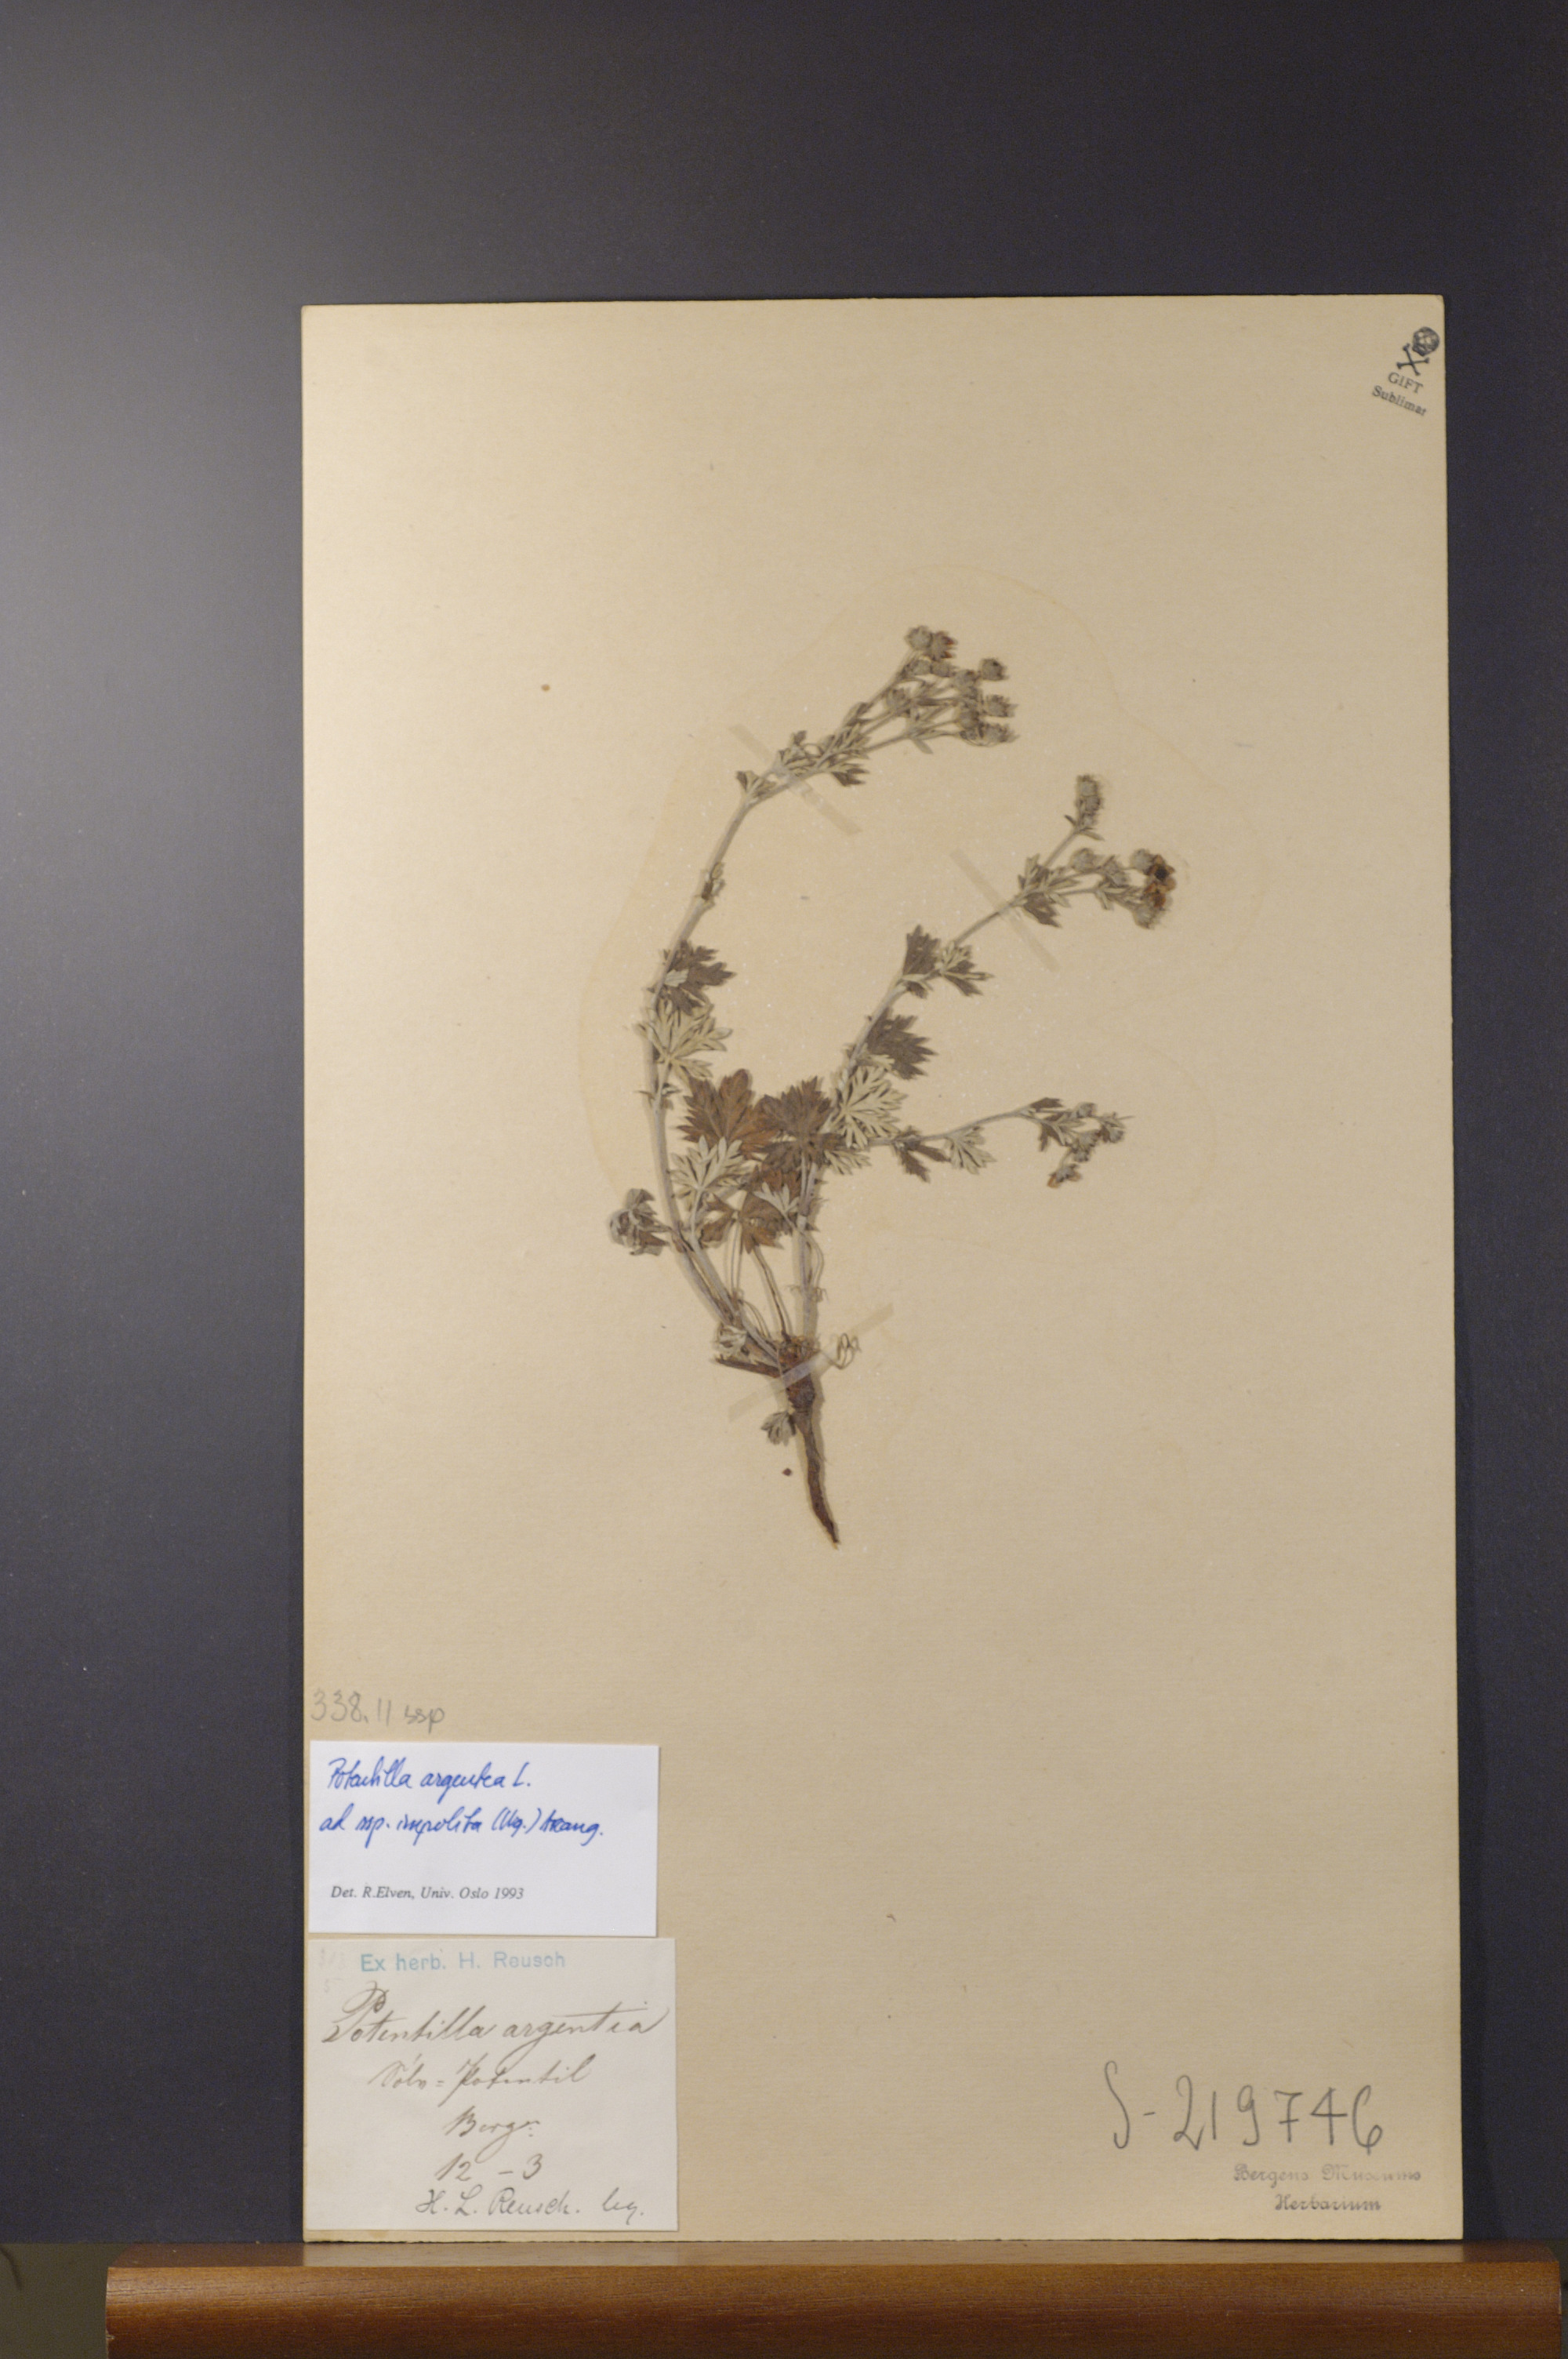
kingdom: Plantae
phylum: Tracheophyta
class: Magnoliopsida
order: Rosales
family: Rosaceae
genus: Potentilla
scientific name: Potentilla neglecta
